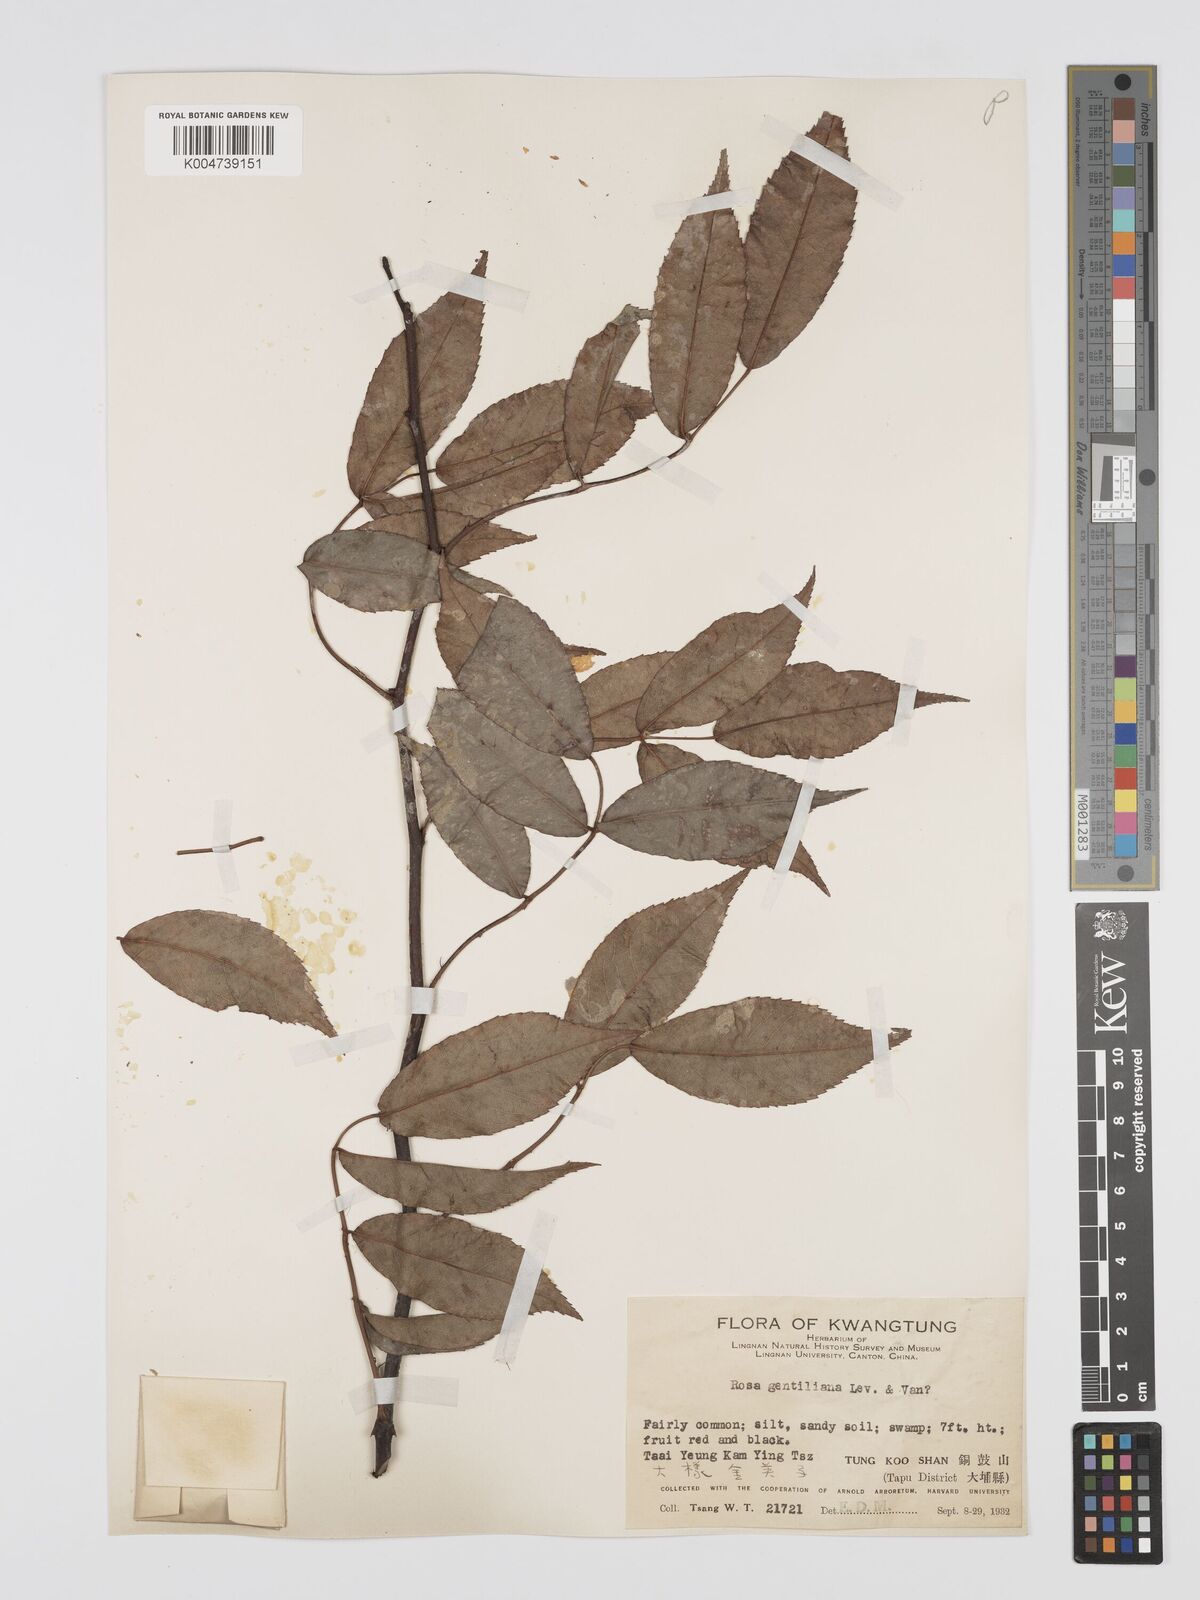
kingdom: Plantae
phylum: Tracheophyta
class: Magnoliopsida
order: Rosales
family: Rosaceae
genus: Rosa
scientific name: Rosa henryi
